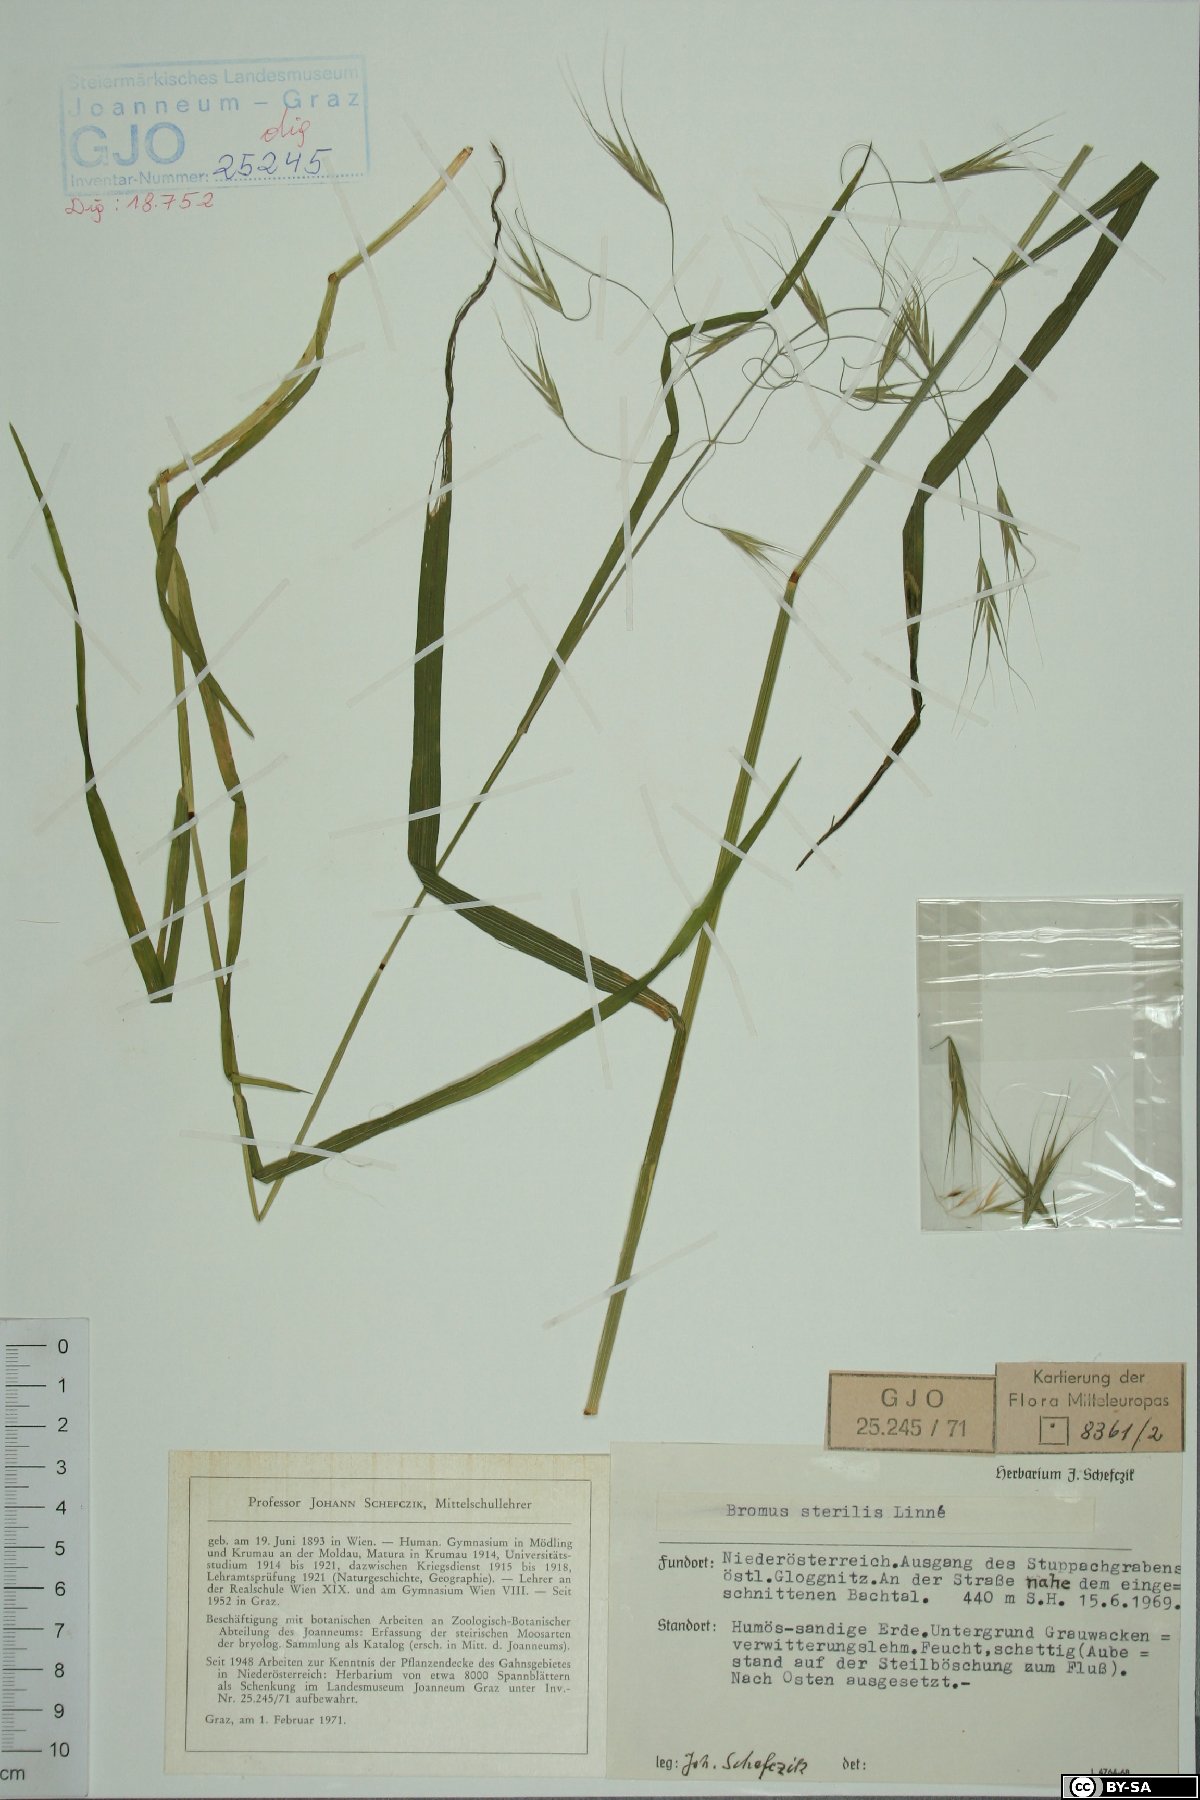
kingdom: Plantae
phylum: Tracheophyta
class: Liliopsida
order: Poales
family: Poaceae
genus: Bromus
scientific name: Bromus sterilis
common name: Poverty brome
